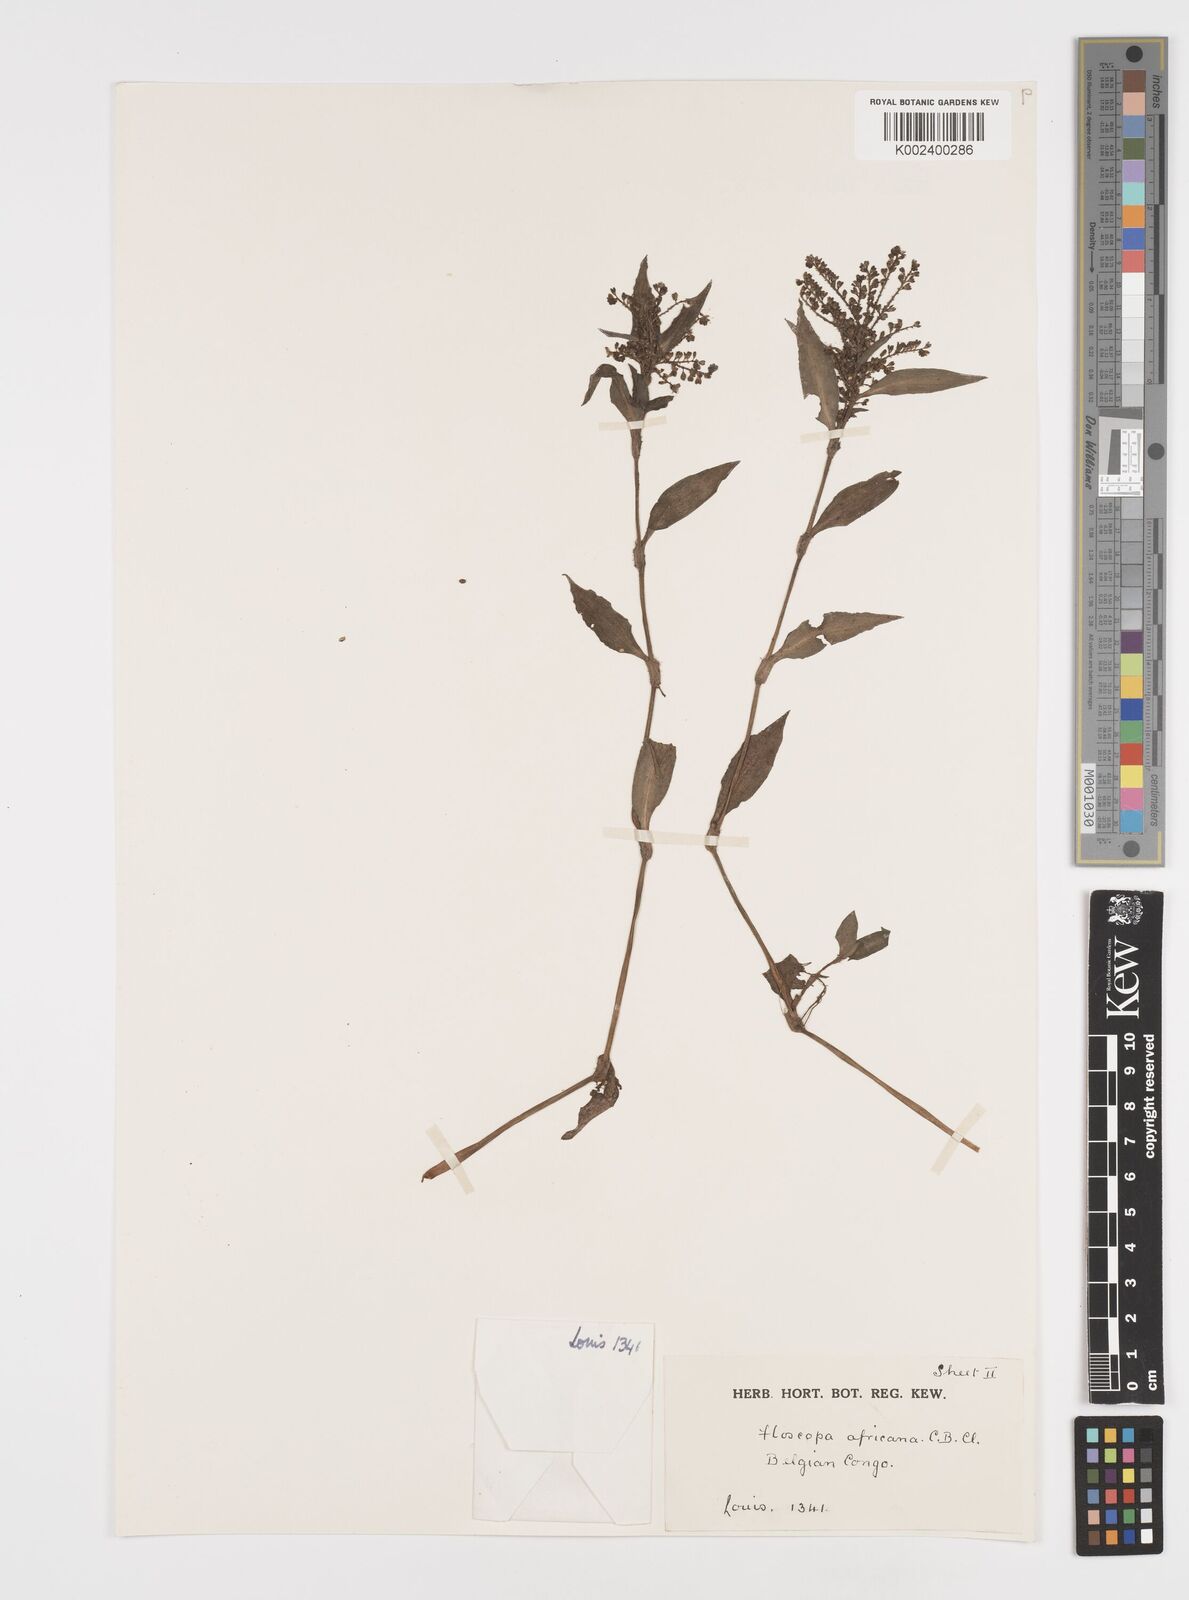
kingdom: Plantae
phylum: Tracheophyta
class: Liliopsida
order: Commelinales
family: Commelinaceae
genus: Floscopa
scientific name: Floscopa africana
